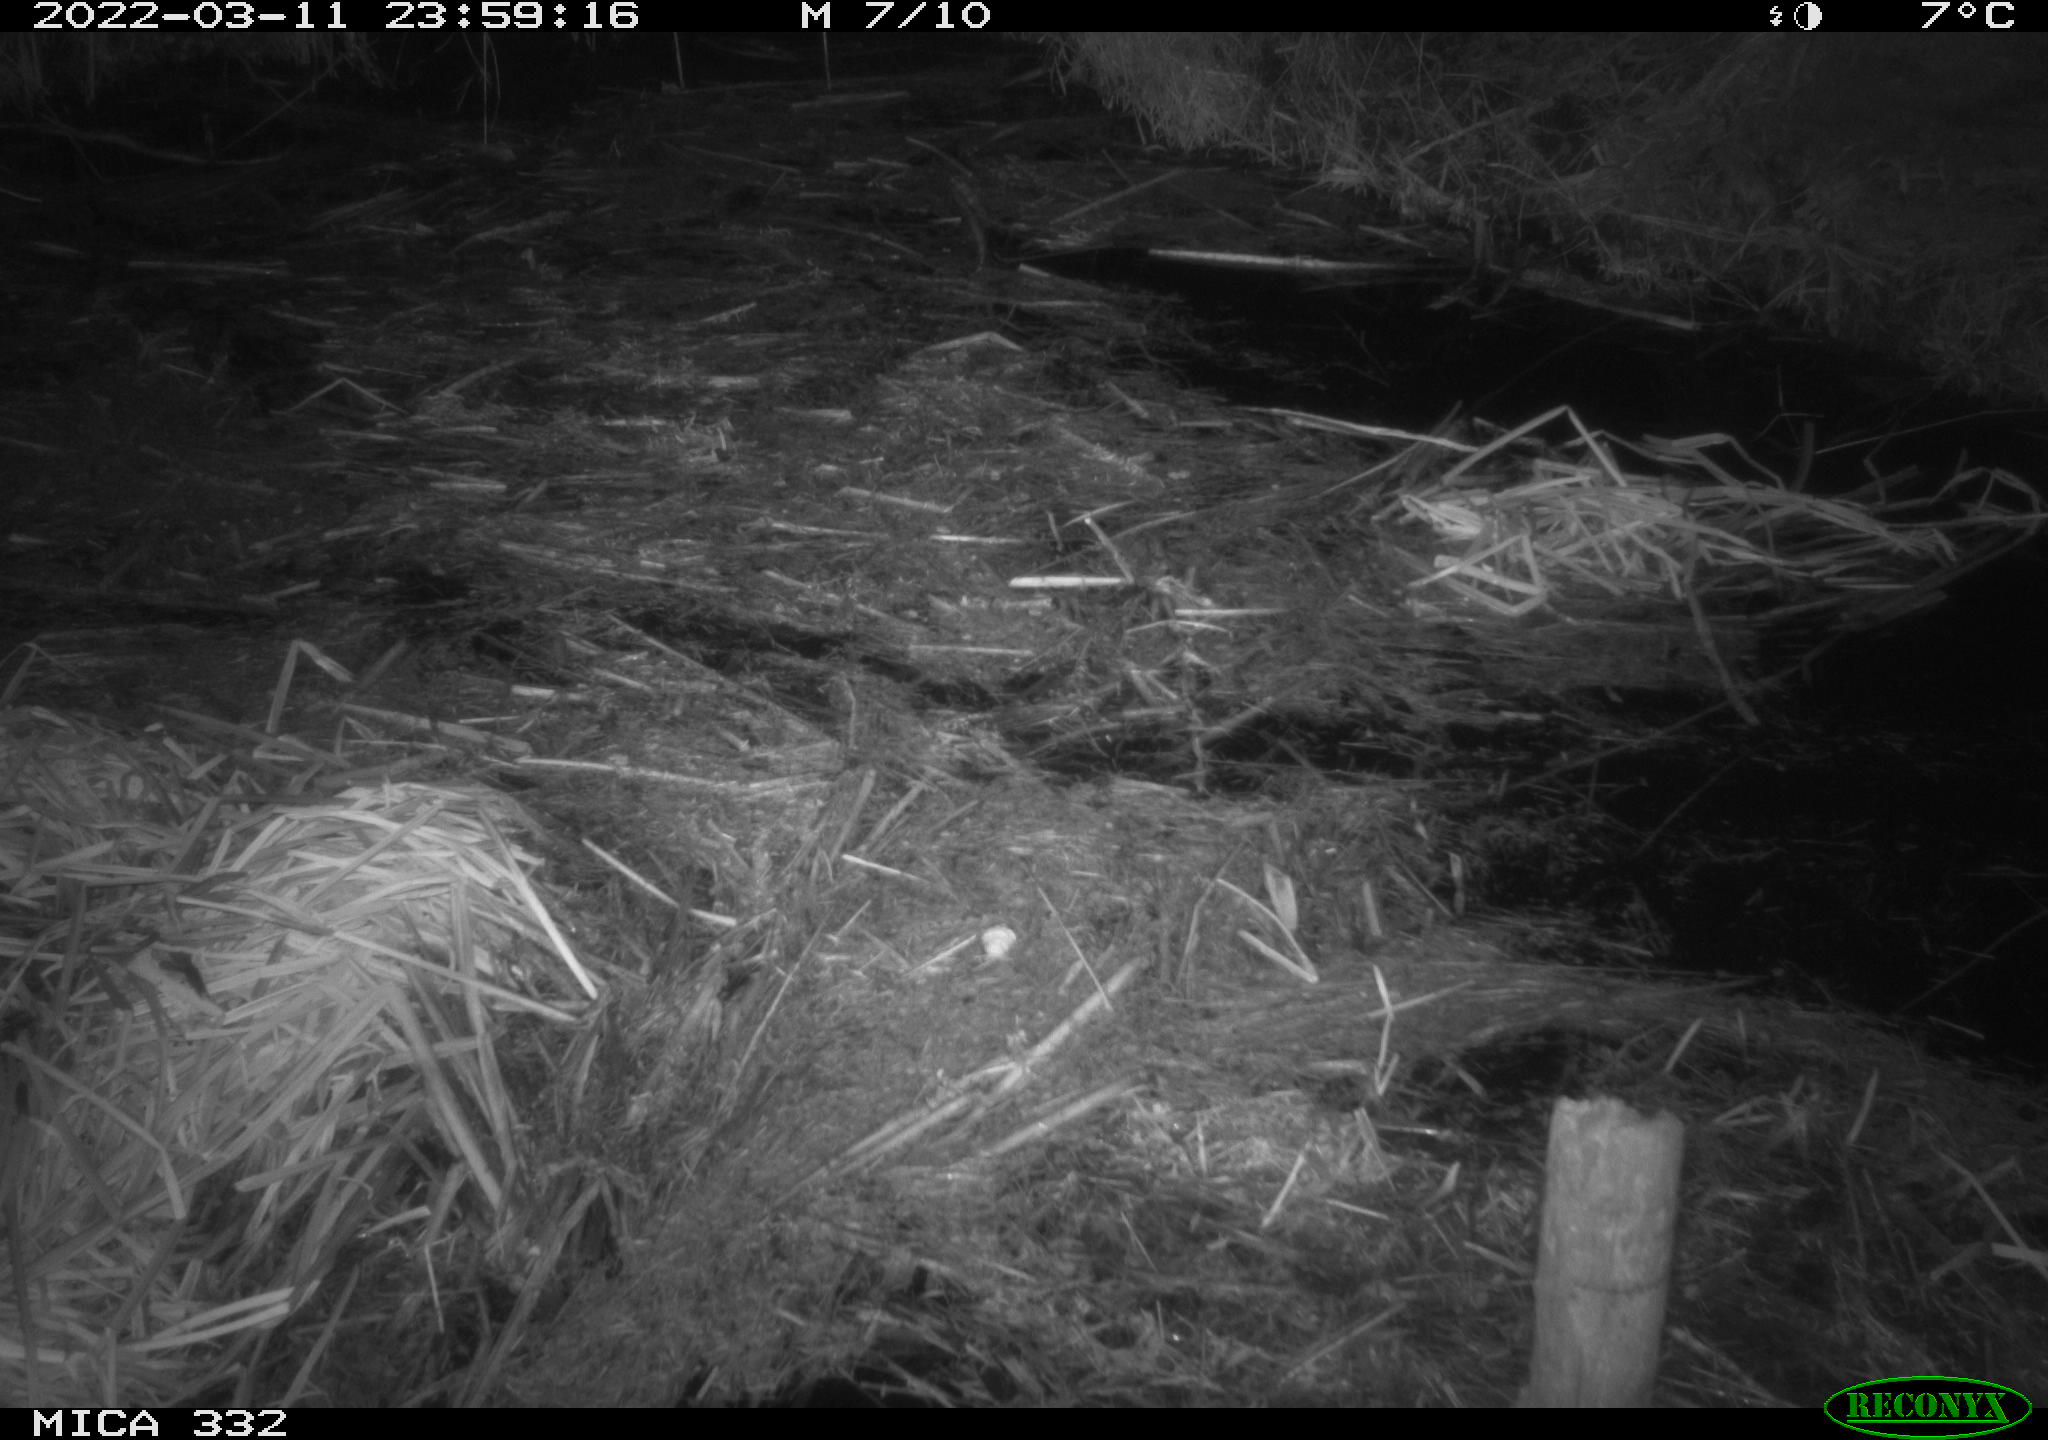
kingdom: Animalia
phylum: Chordata
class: Aves
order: Anseriformes
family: Anatidae
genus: Anas
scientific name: Anas platyrhynchos
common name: Mallard
